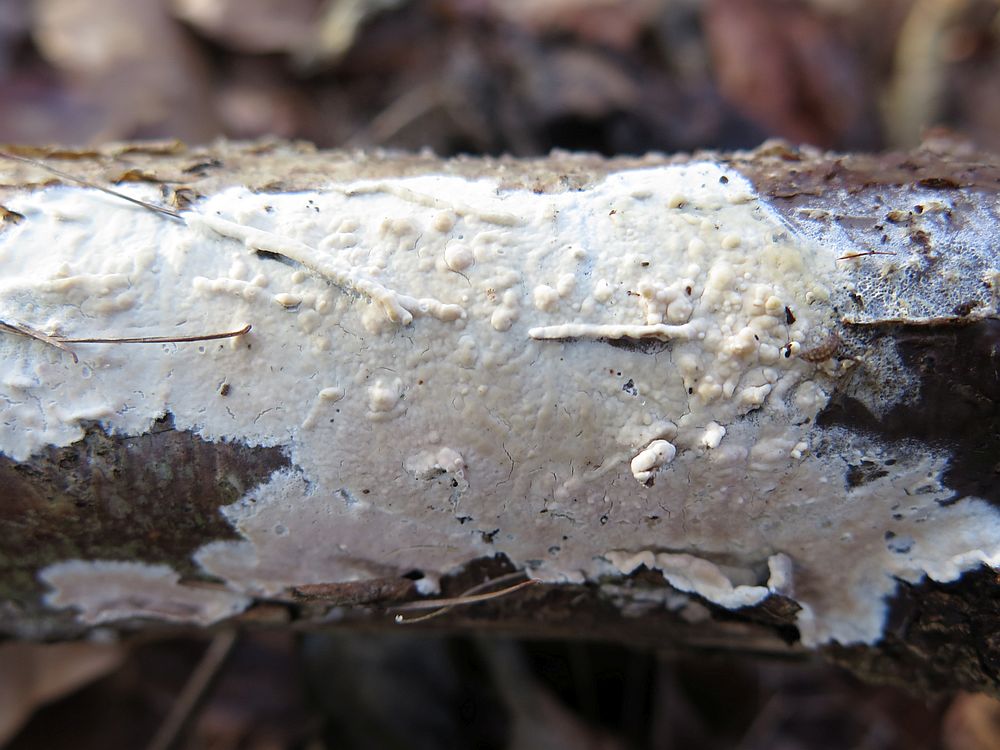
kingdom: Fungi
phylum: Basidiomycota
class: Agaricomycetes
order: Agaricales
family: Physalacriaceae
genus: Cylindrobasidium
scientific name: Cylindrobasidium evolvens
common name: sprækkehinde
